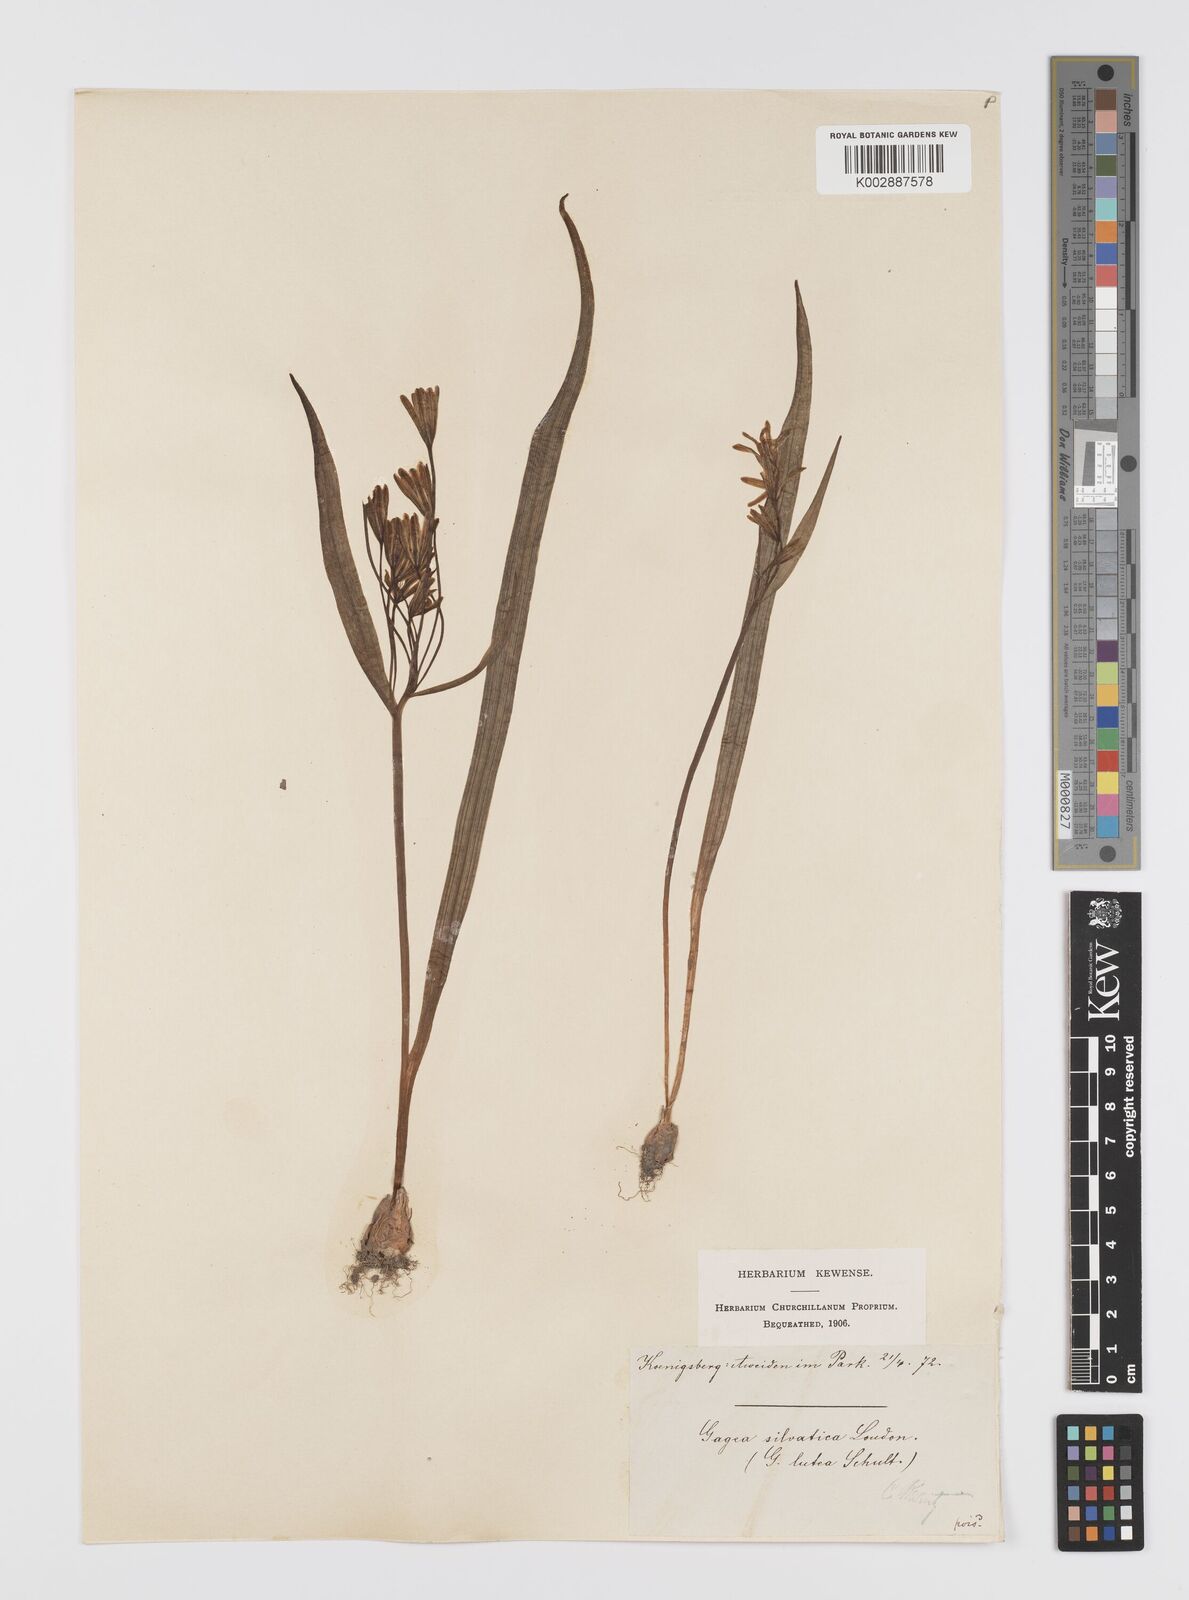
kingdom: Plantae
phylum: Tracheophyta
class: Liliopsida
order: Liliales
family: Liliaceae
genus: Gagea
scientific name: Gagea lutea
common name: Yellow star-of-bethlehem
